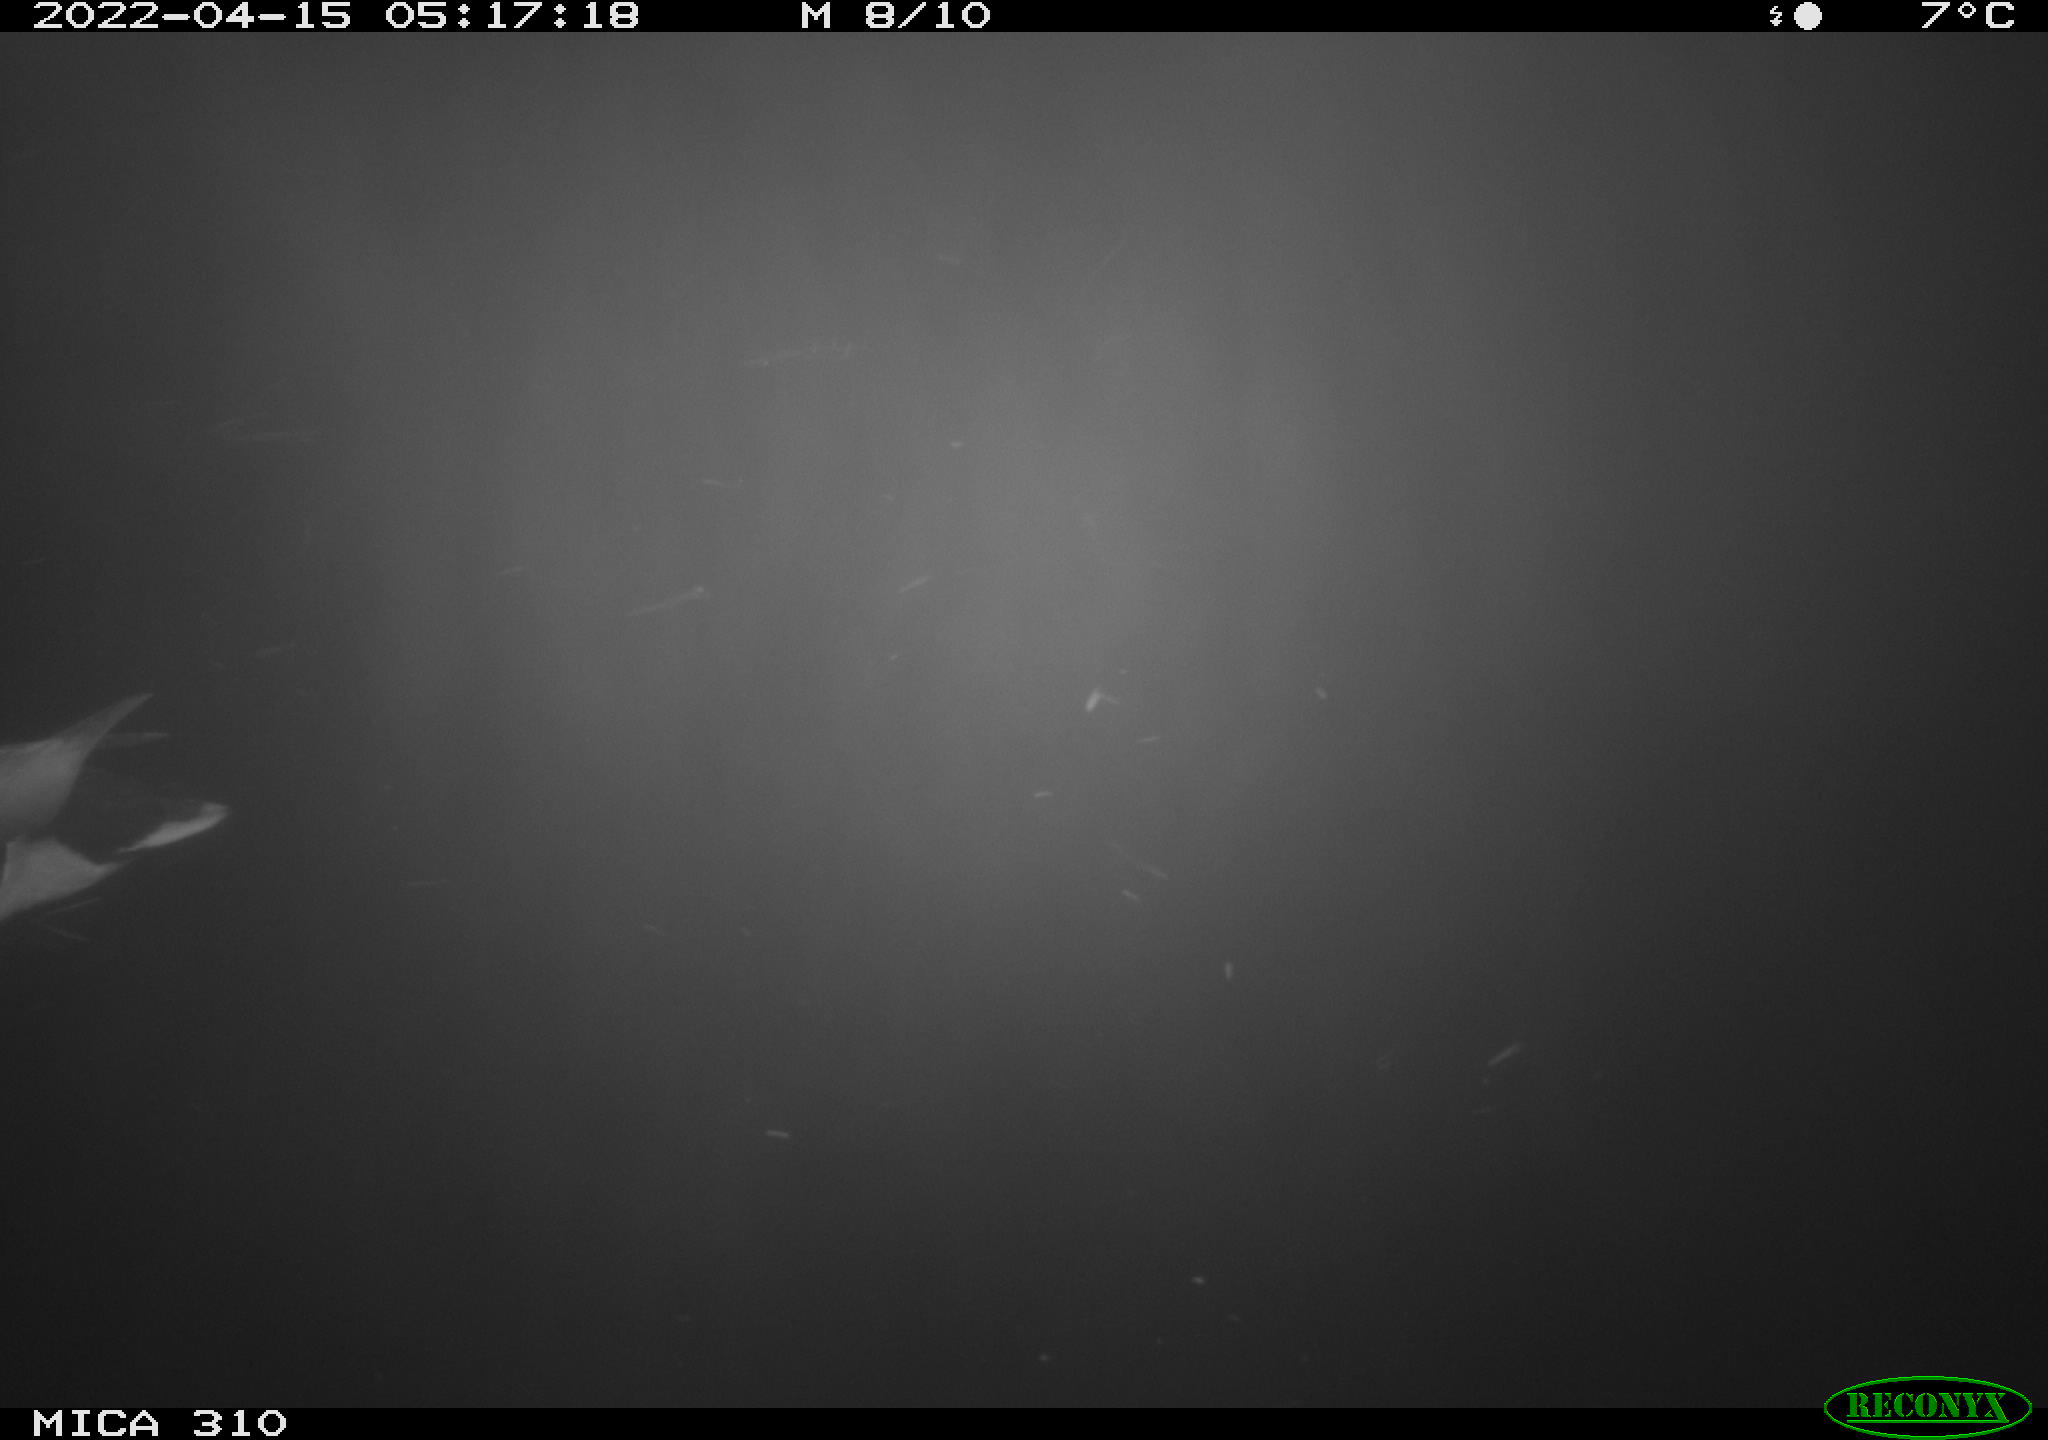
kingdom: Animalia
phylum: Chordata
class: Aves
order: Anseriformes
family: Anatidae
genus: Anas
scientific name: Anas platyrhynchos
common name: Mallard
